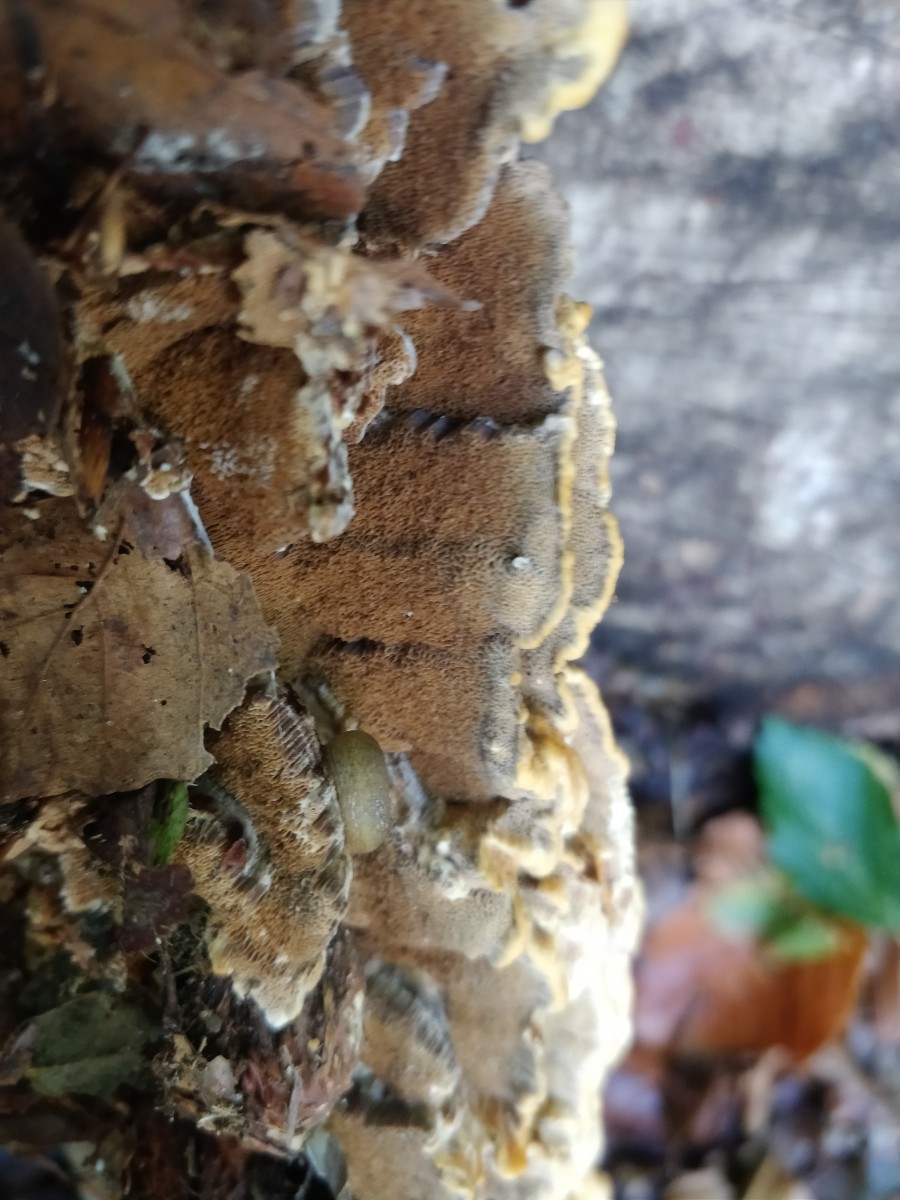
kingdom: Fungi
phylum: Basidiomycota
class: Agaricomycetes
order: Hymenochaetales
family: Hymenochaetaceae
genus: Mensularia
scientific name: Mensularia nodulosa
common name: bøge-spejlporesvamp
